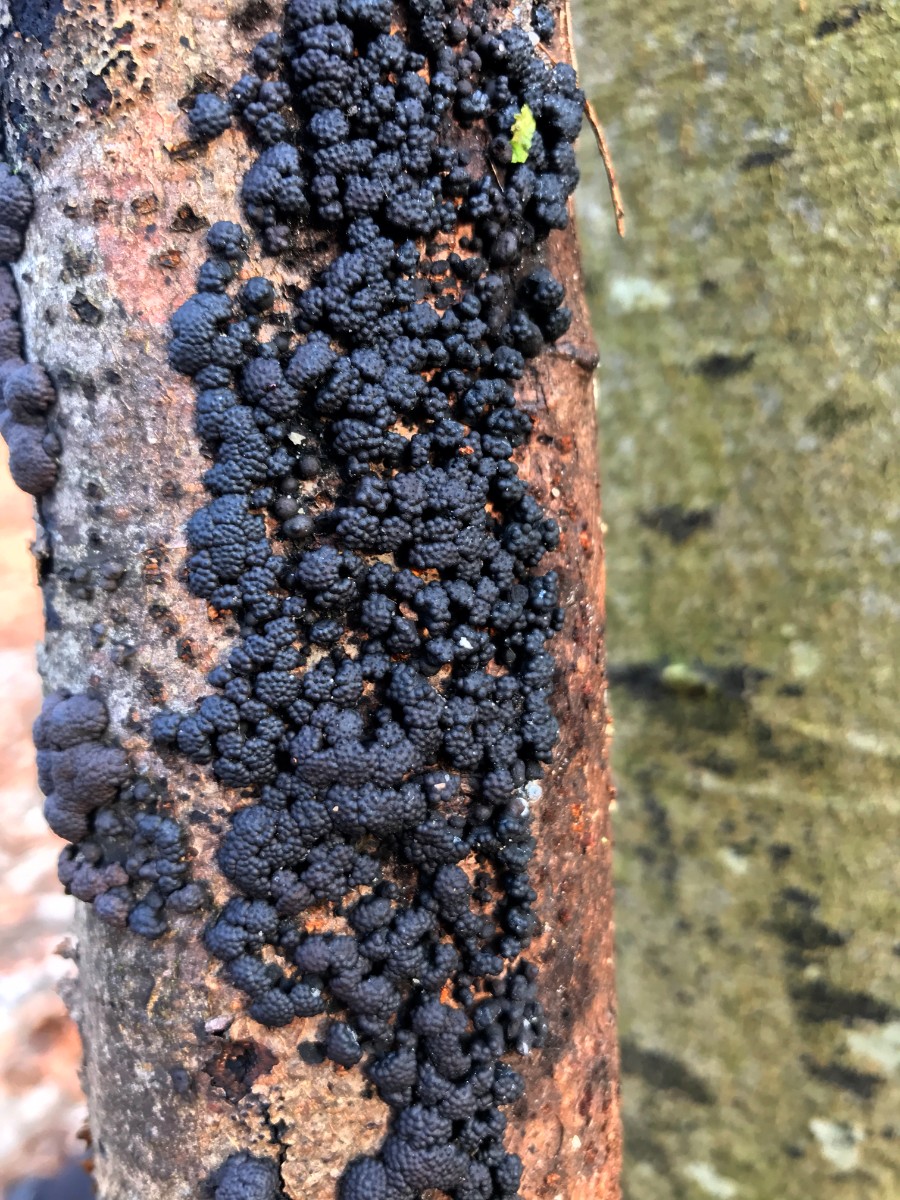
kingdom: Fungi
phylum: Ascomycota
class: Sordariomycetes
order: Xylariales
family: Hypoxylaceae
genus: Hypoxylon
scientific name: Hypoxylon fragiforme
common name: kuljordbær
